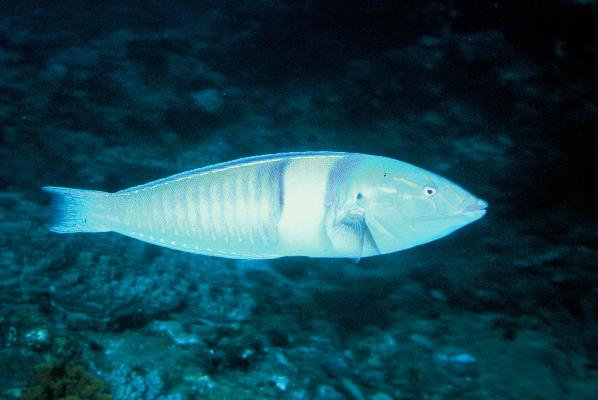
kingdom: Animalia
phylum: Chordata
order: Perciformes
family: Labridae
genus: Hologymnosus
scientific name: Hologymnosus doliatus
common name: Pastel ringwrasse
